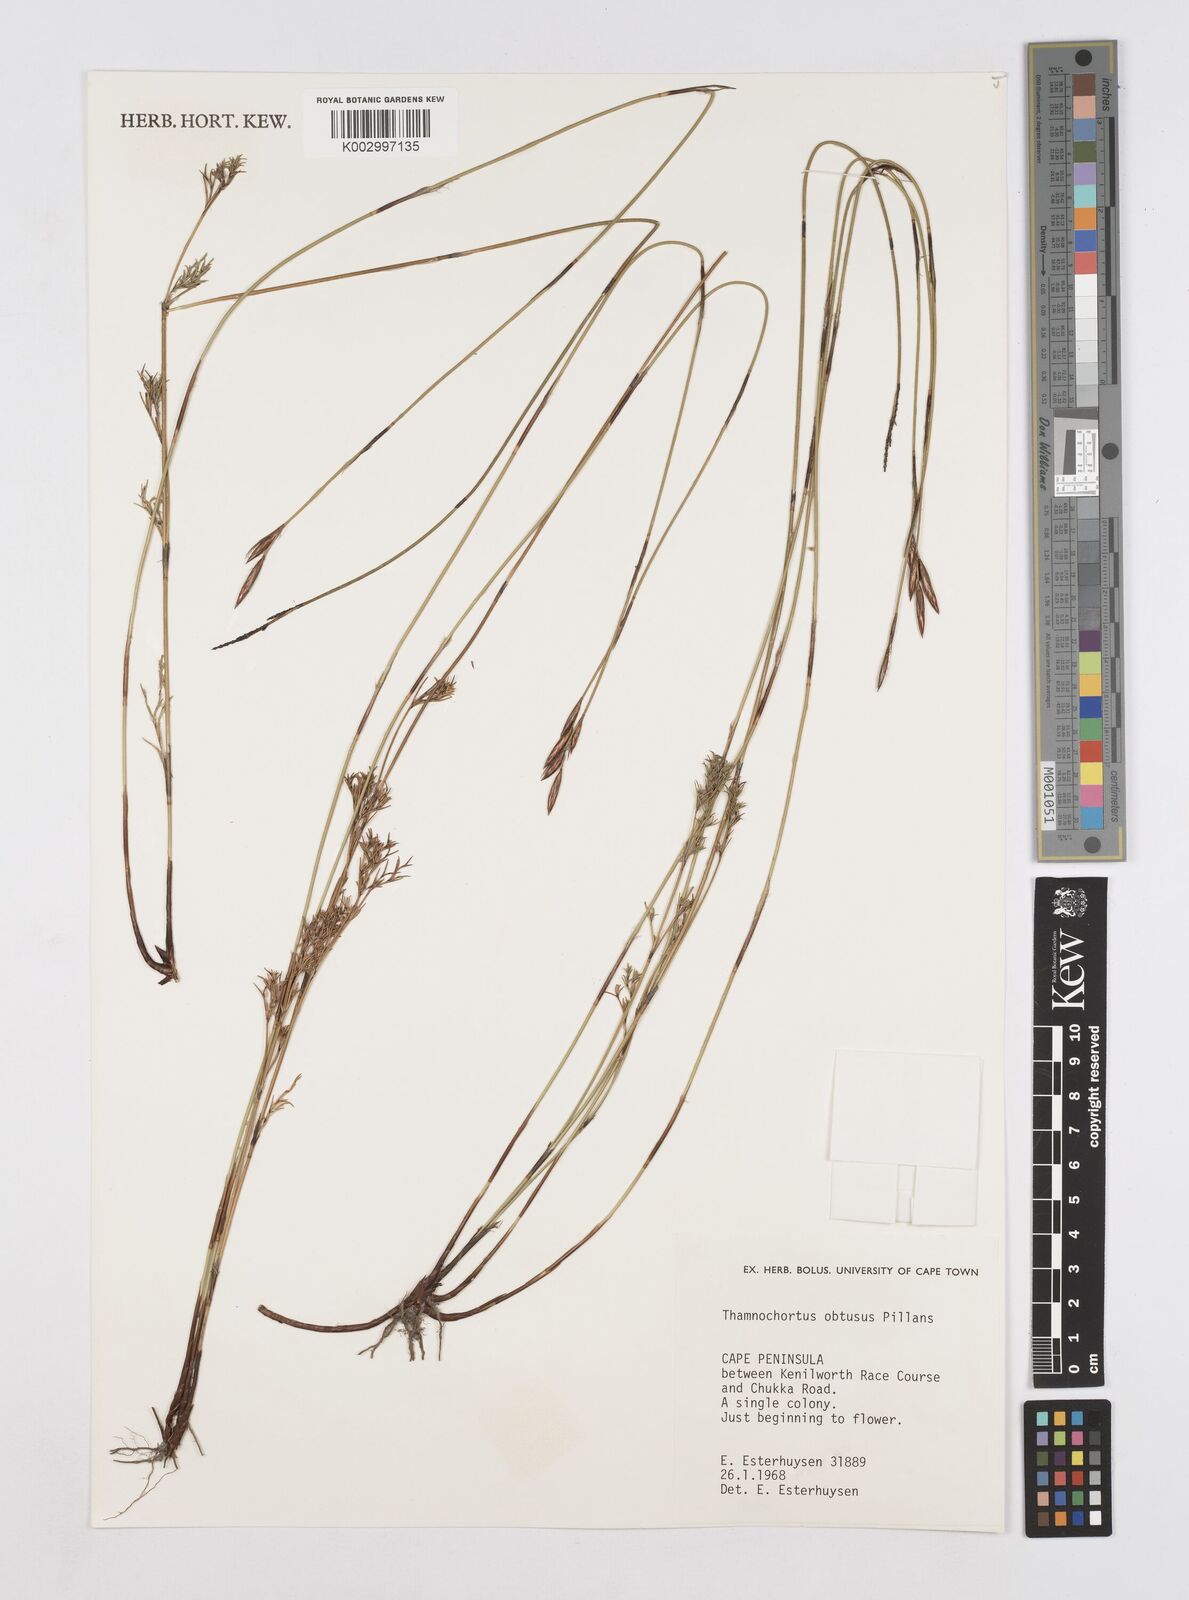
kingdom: Plantae
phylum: Tracheophyta
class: Liliopsida
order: Poales
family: Restionaceae
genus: Thamnochortus
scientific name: Thamnochortus obtusus
